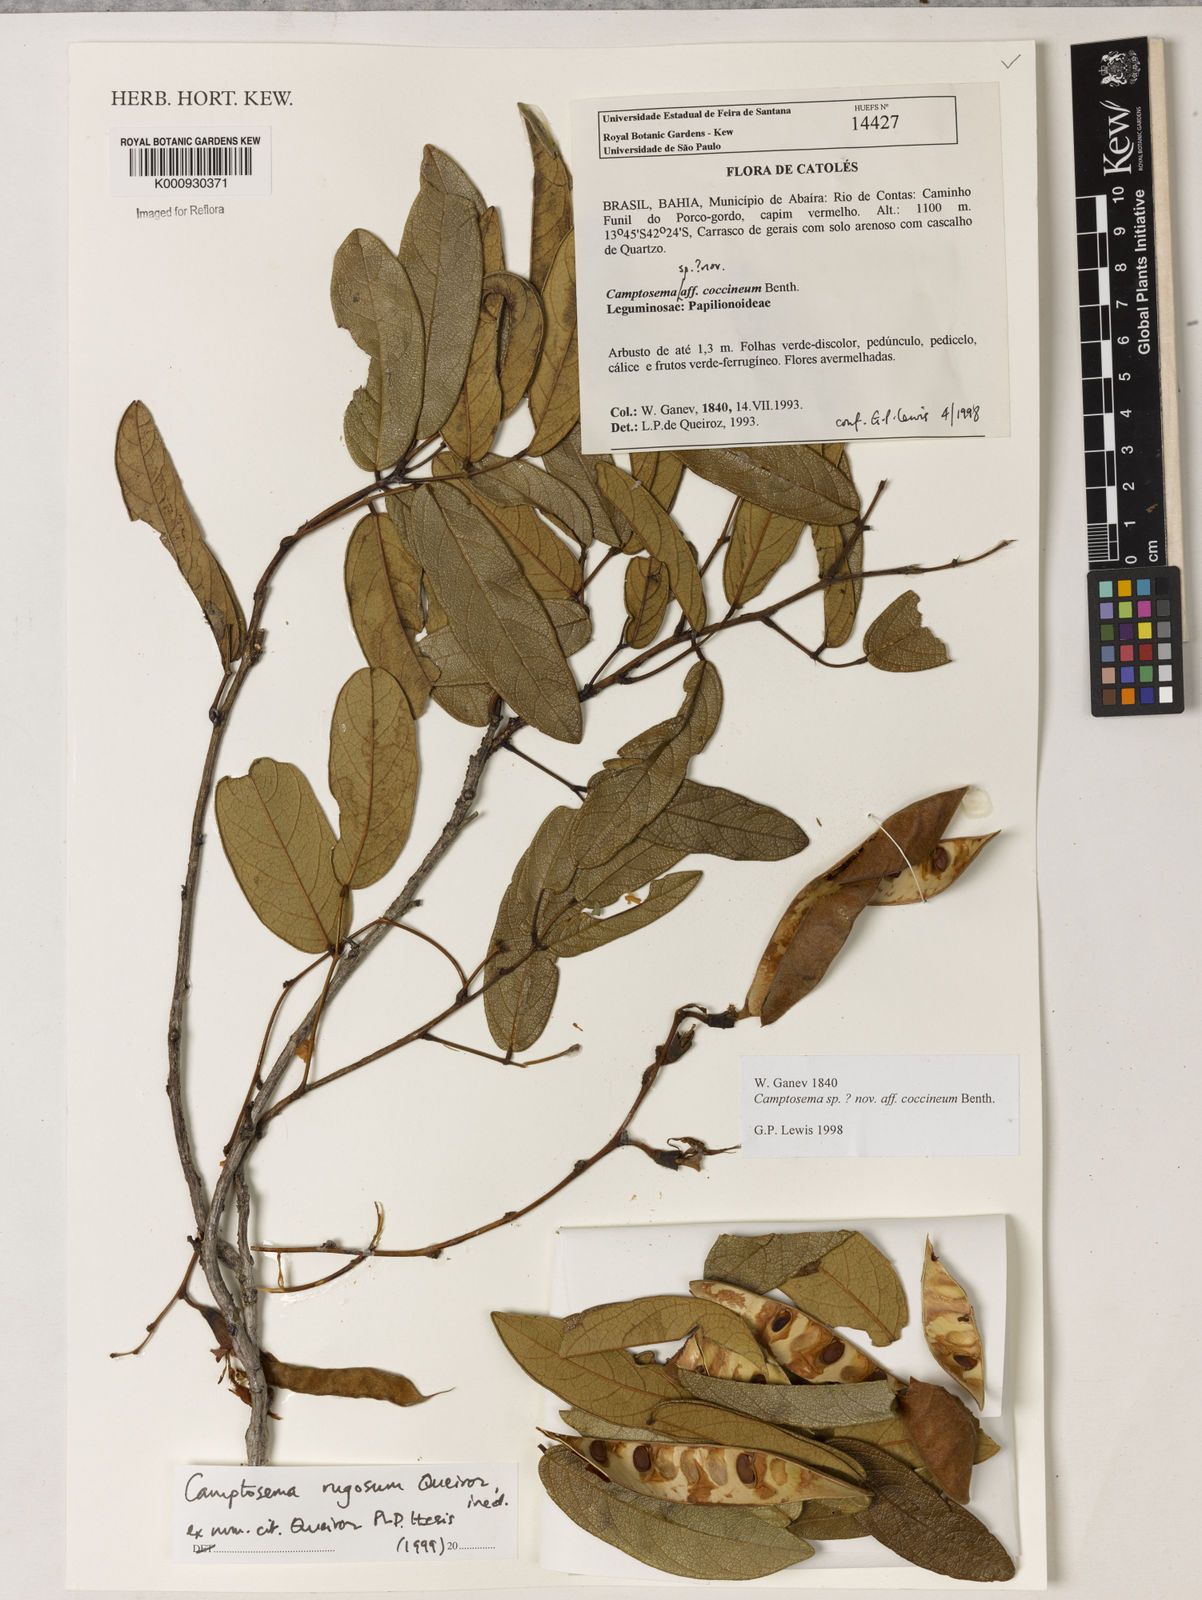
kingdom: Plantae
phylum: Tracheophyta
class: Magnoliopsida
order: Fabales
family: Fabaceae
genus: Camptosema
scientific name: Camptosema
